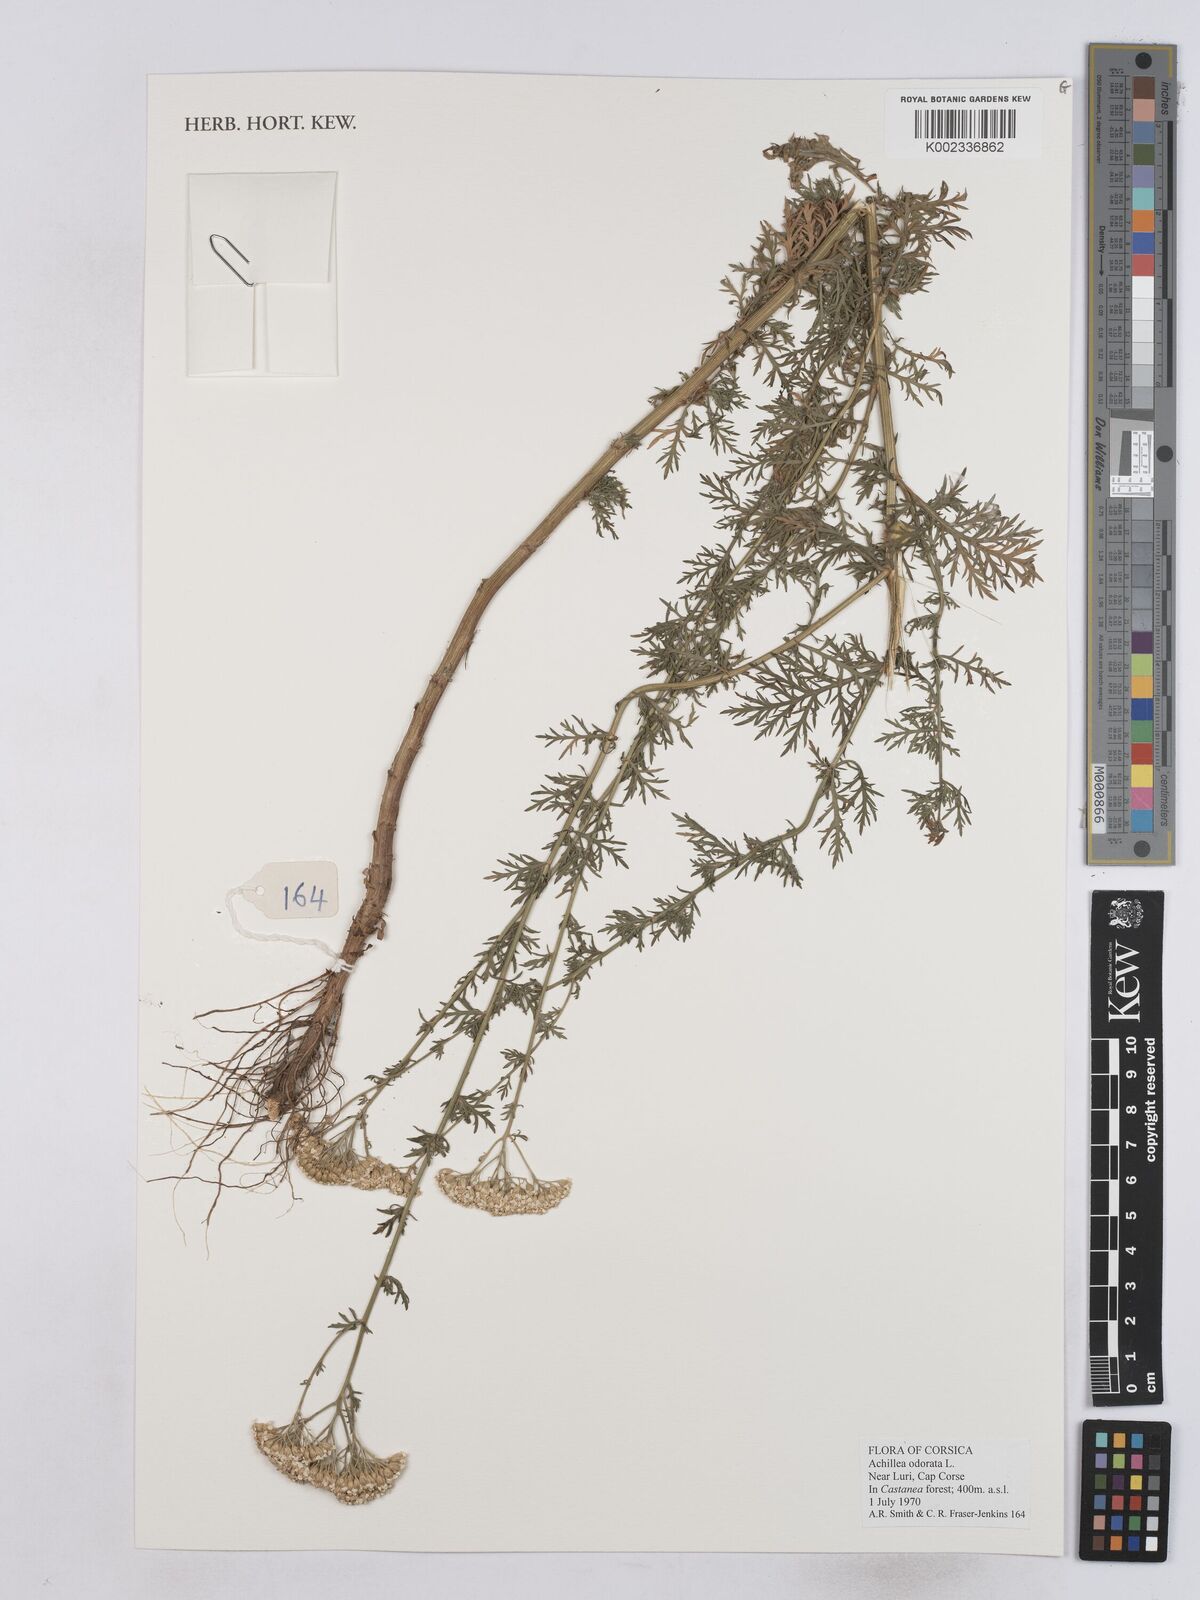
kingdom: Plantae
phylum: Tracheophyta
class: Magnoliopsida
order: Asterales
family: Asteraceae
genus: Achillea
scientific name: Achillea odorata
